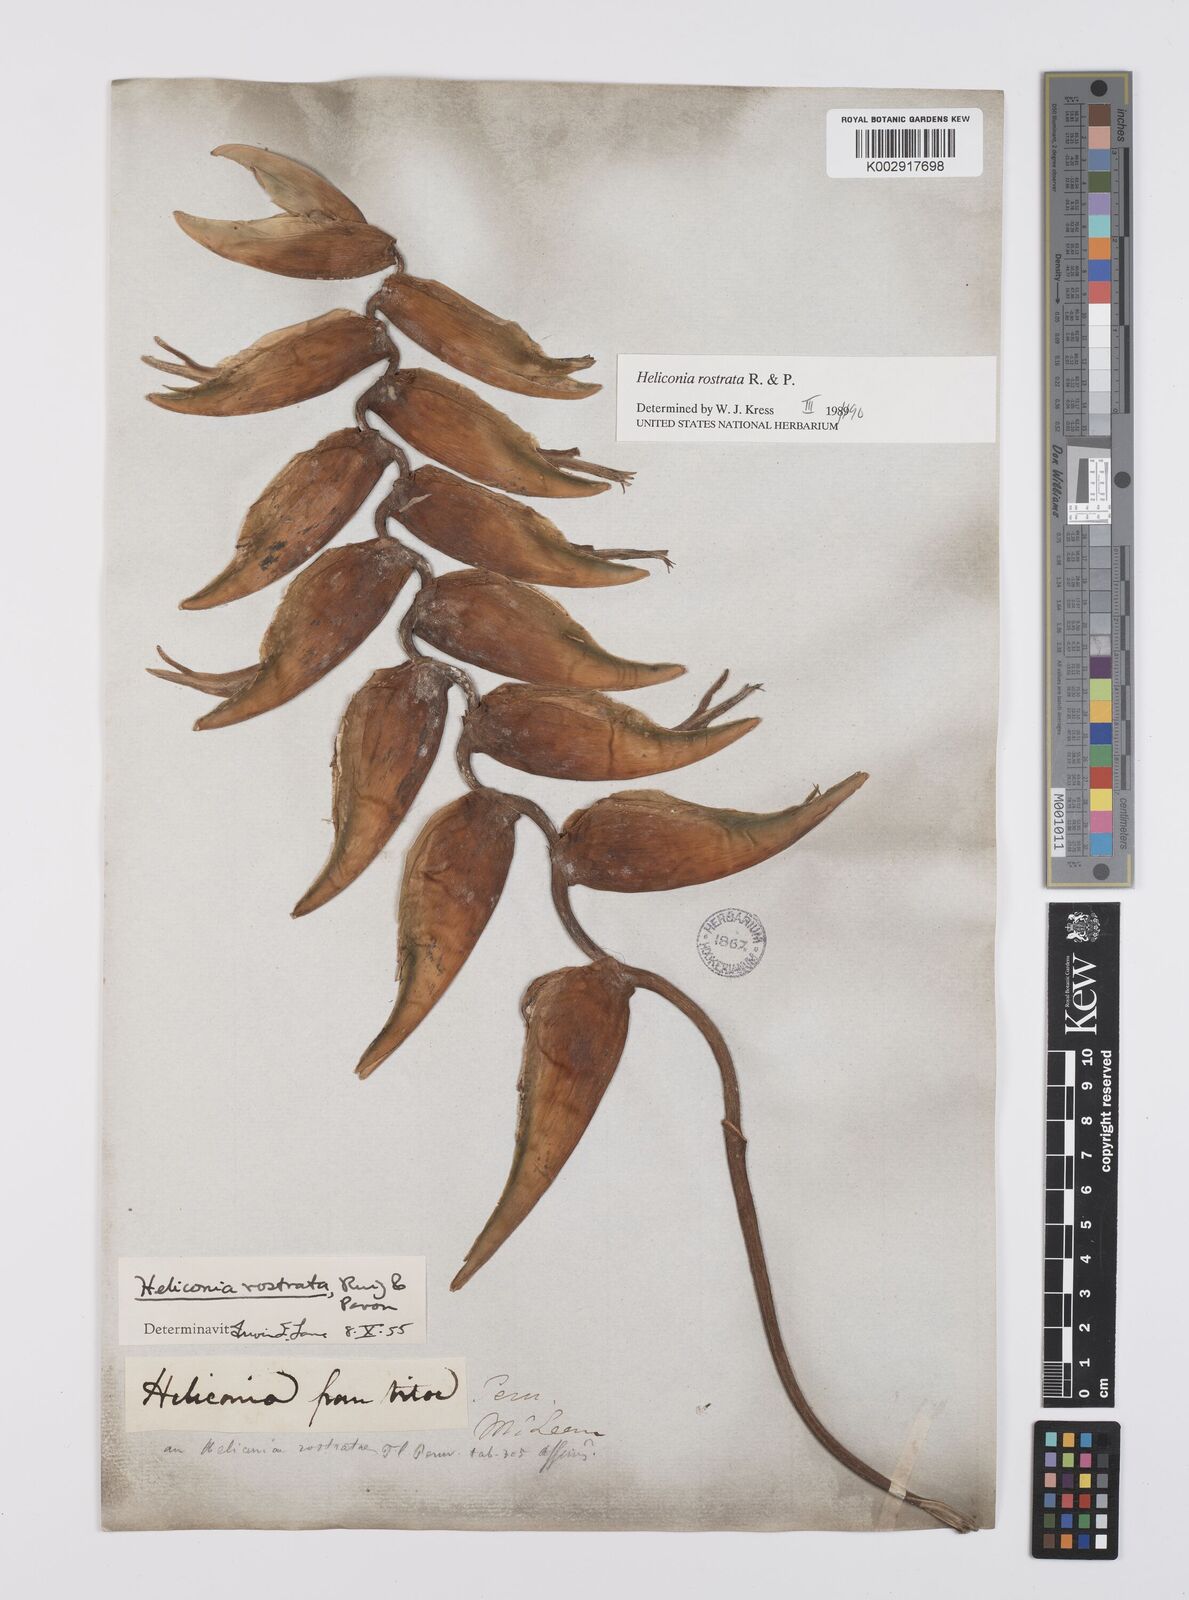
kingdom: Plantae
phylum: Tracheophyta
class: Liliopsida
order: Zingiberales
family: Heliconiaceae
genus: Heliconia
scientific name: Heliconia rostrata
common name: False bird of paradise
